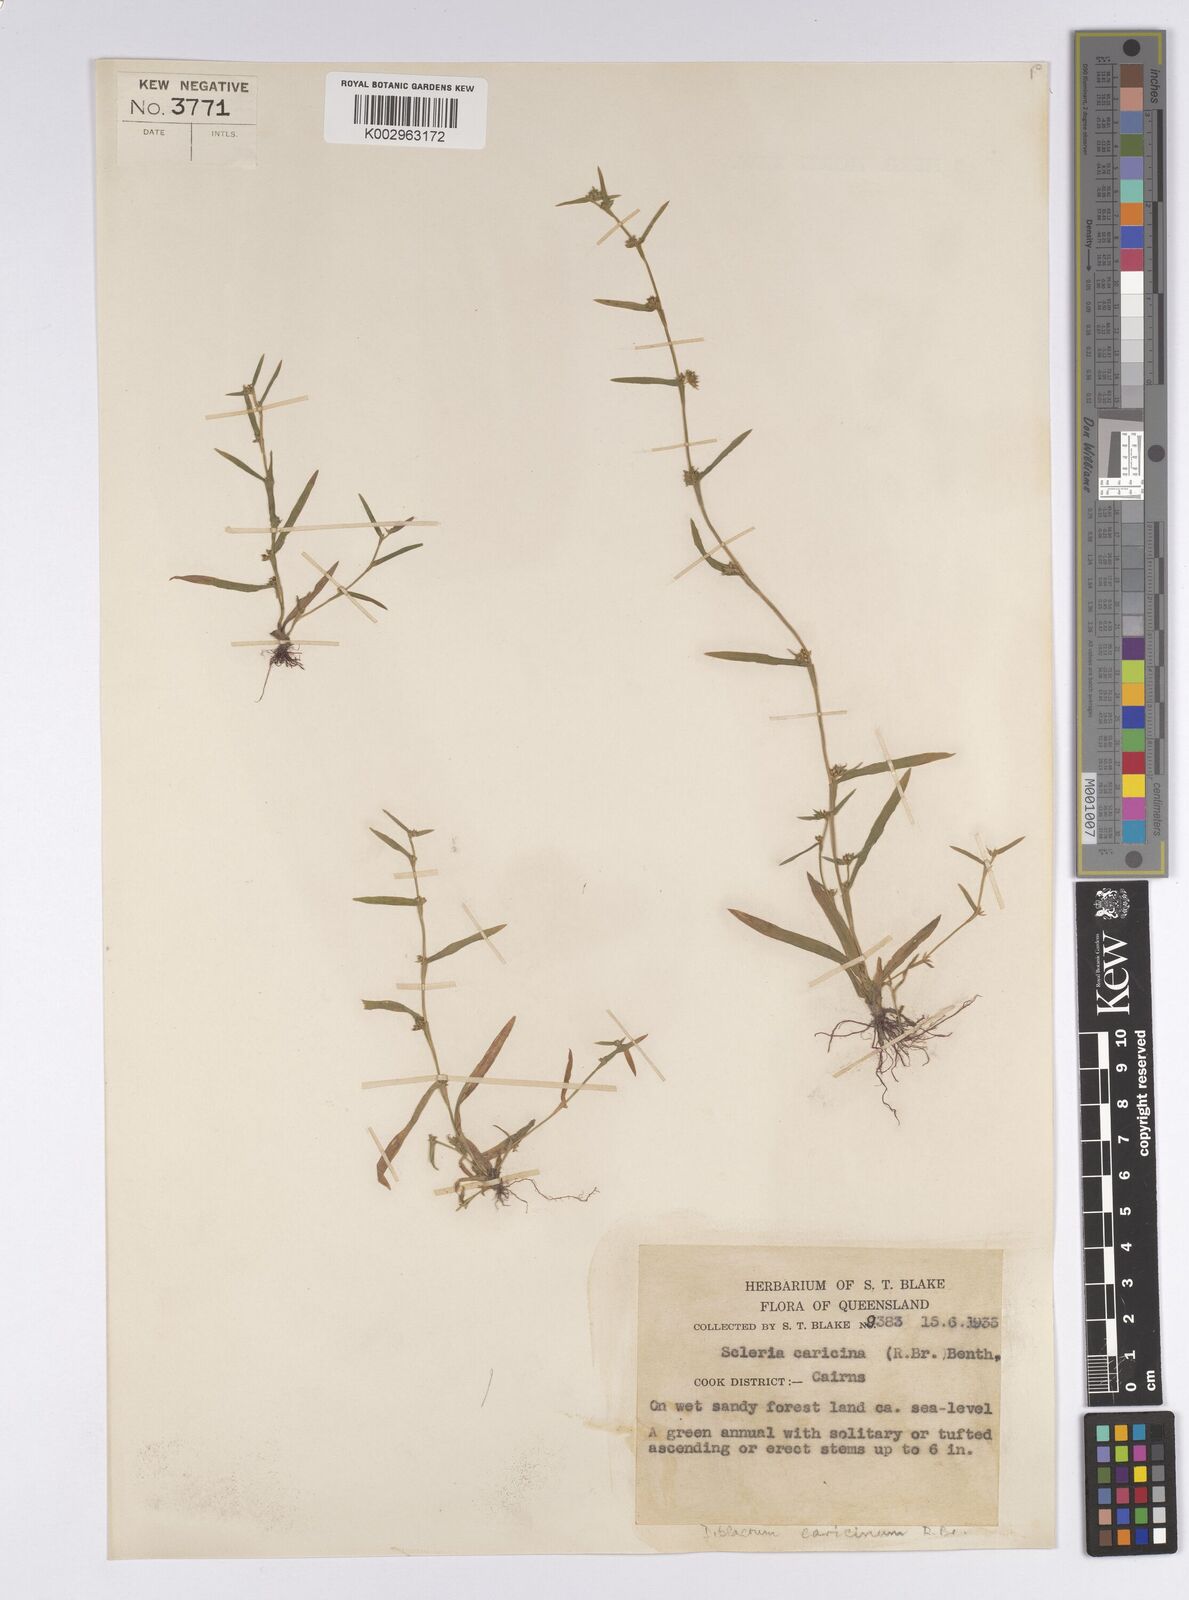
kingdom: Plantae
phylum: Tracheophyta
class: Liliopsida
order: Poales
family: Cyperaceae
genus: Diplacrum
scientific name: Diplacrum caricinum
